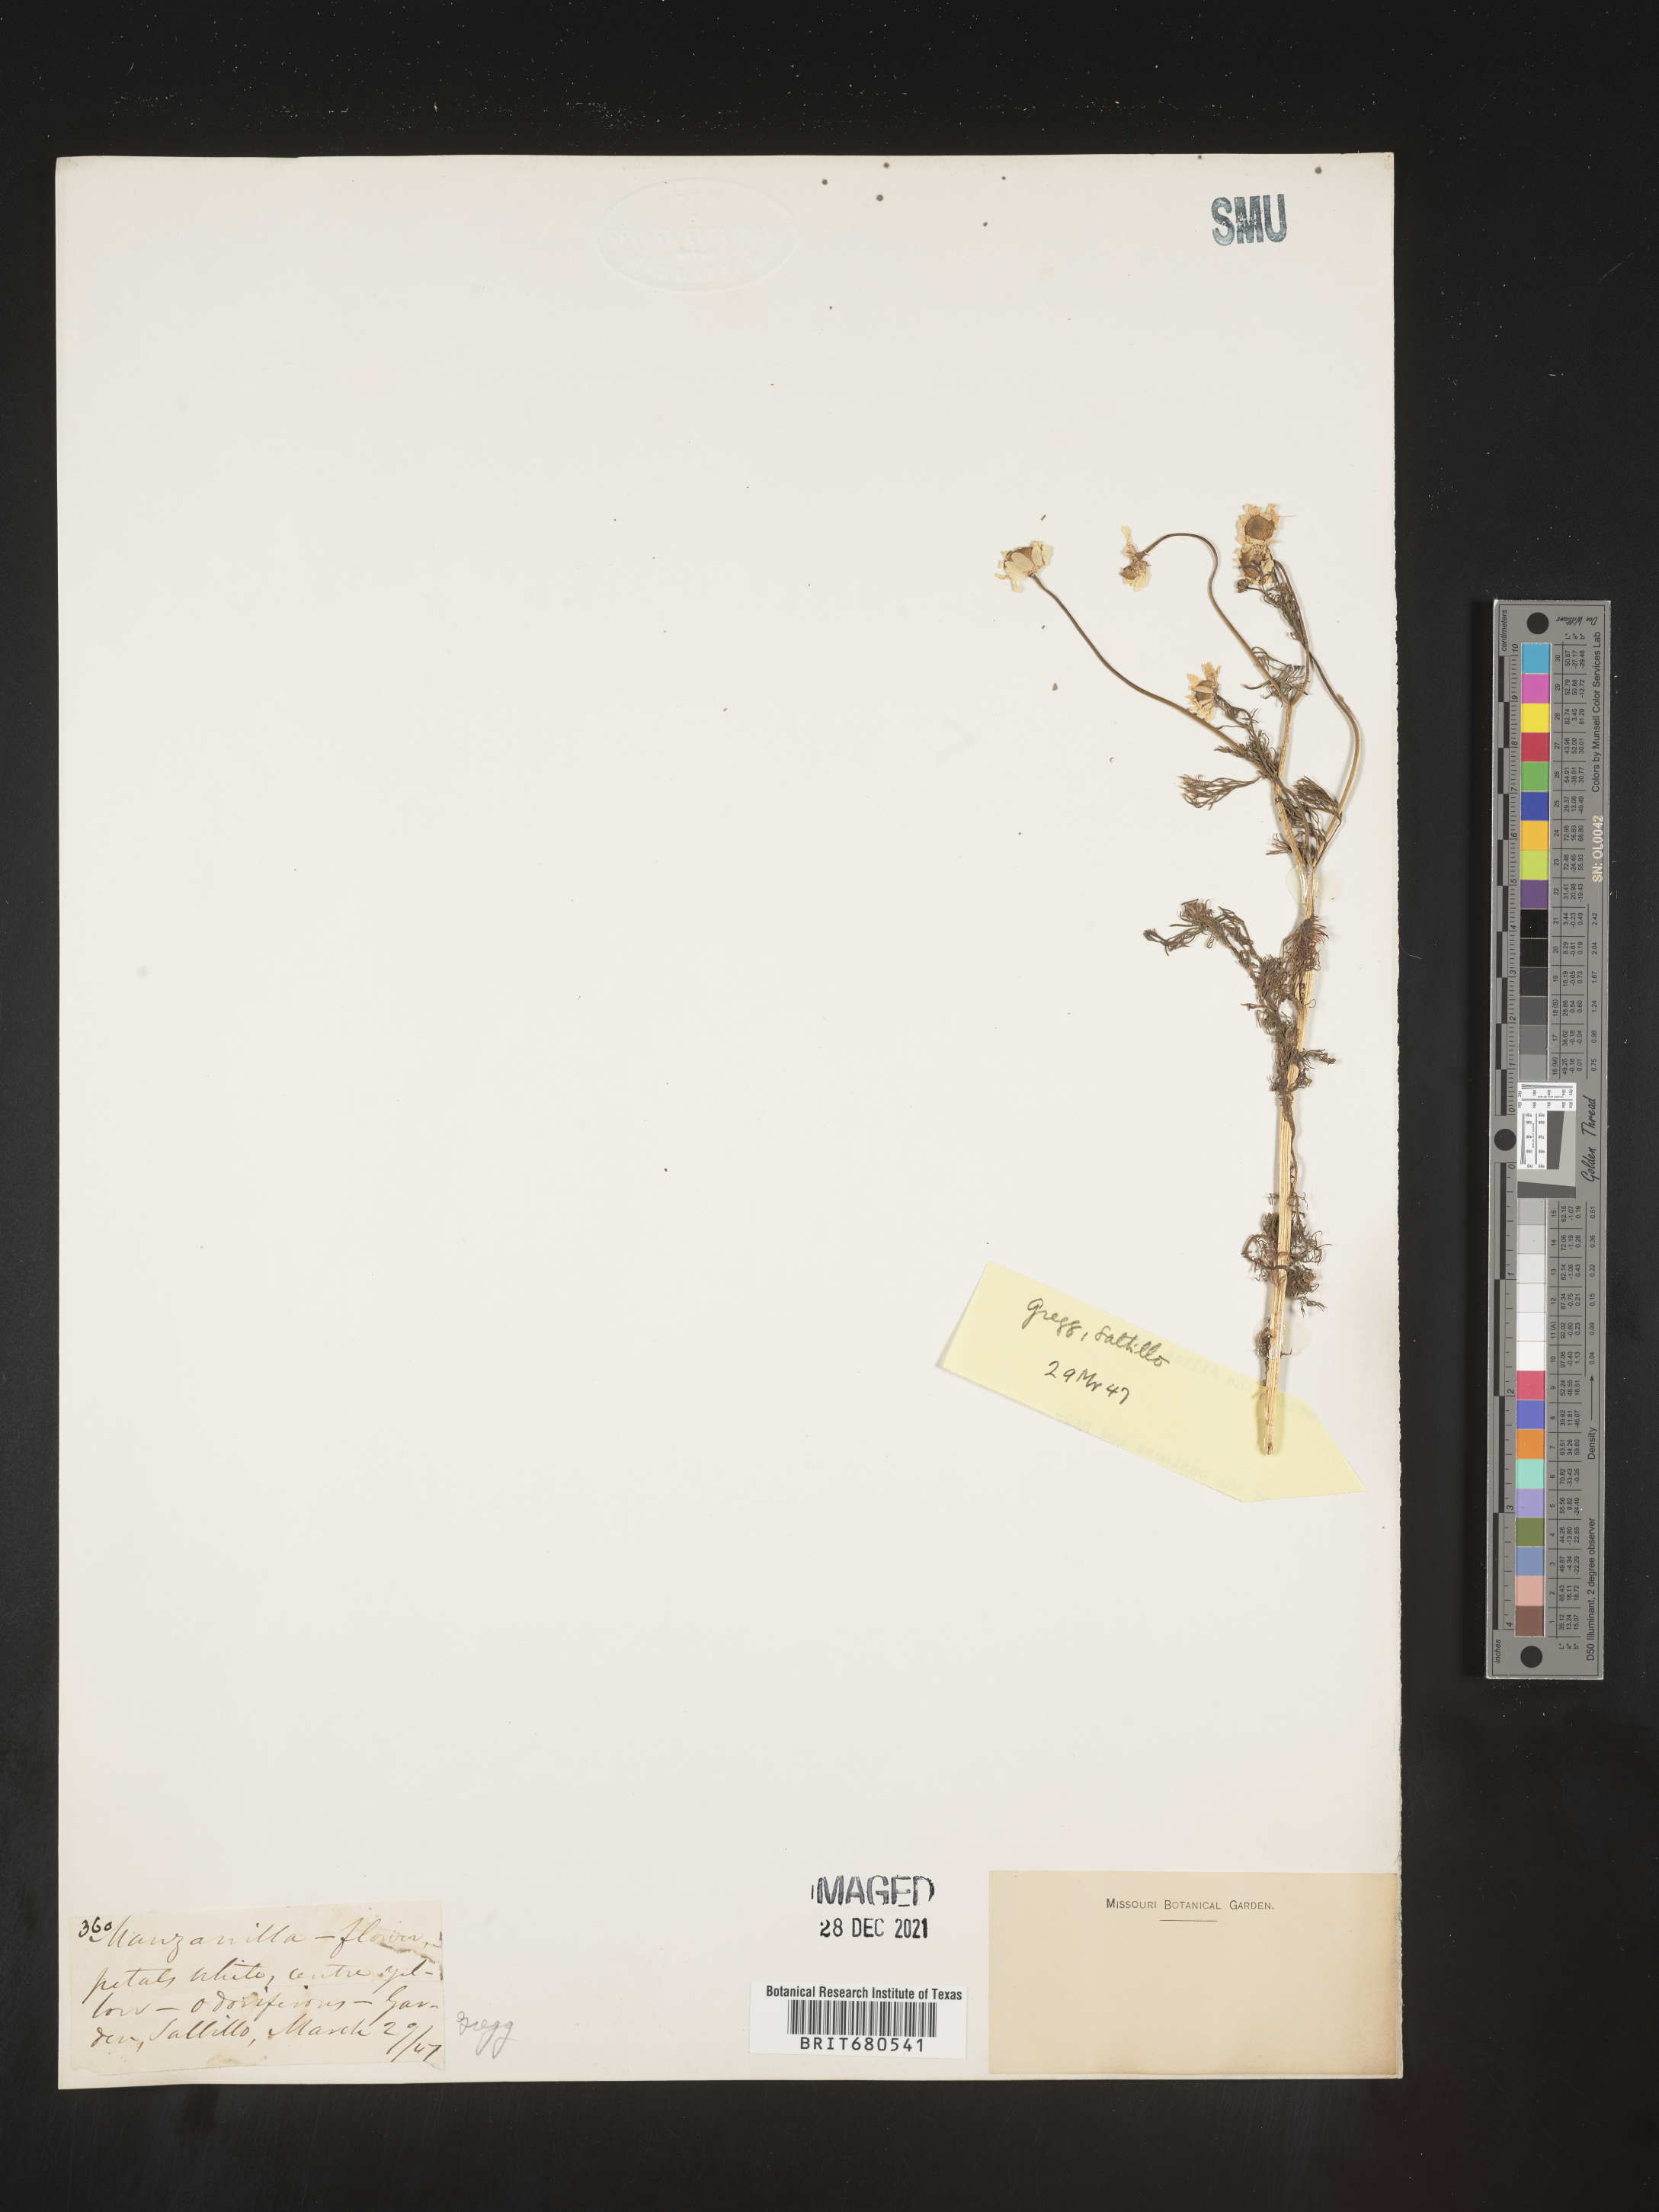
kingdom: Plantae
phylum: Tracheophyta
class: Magnoliopsida
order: Asterales
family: Asteraceae
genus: Anthemis
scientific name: Anthemis
